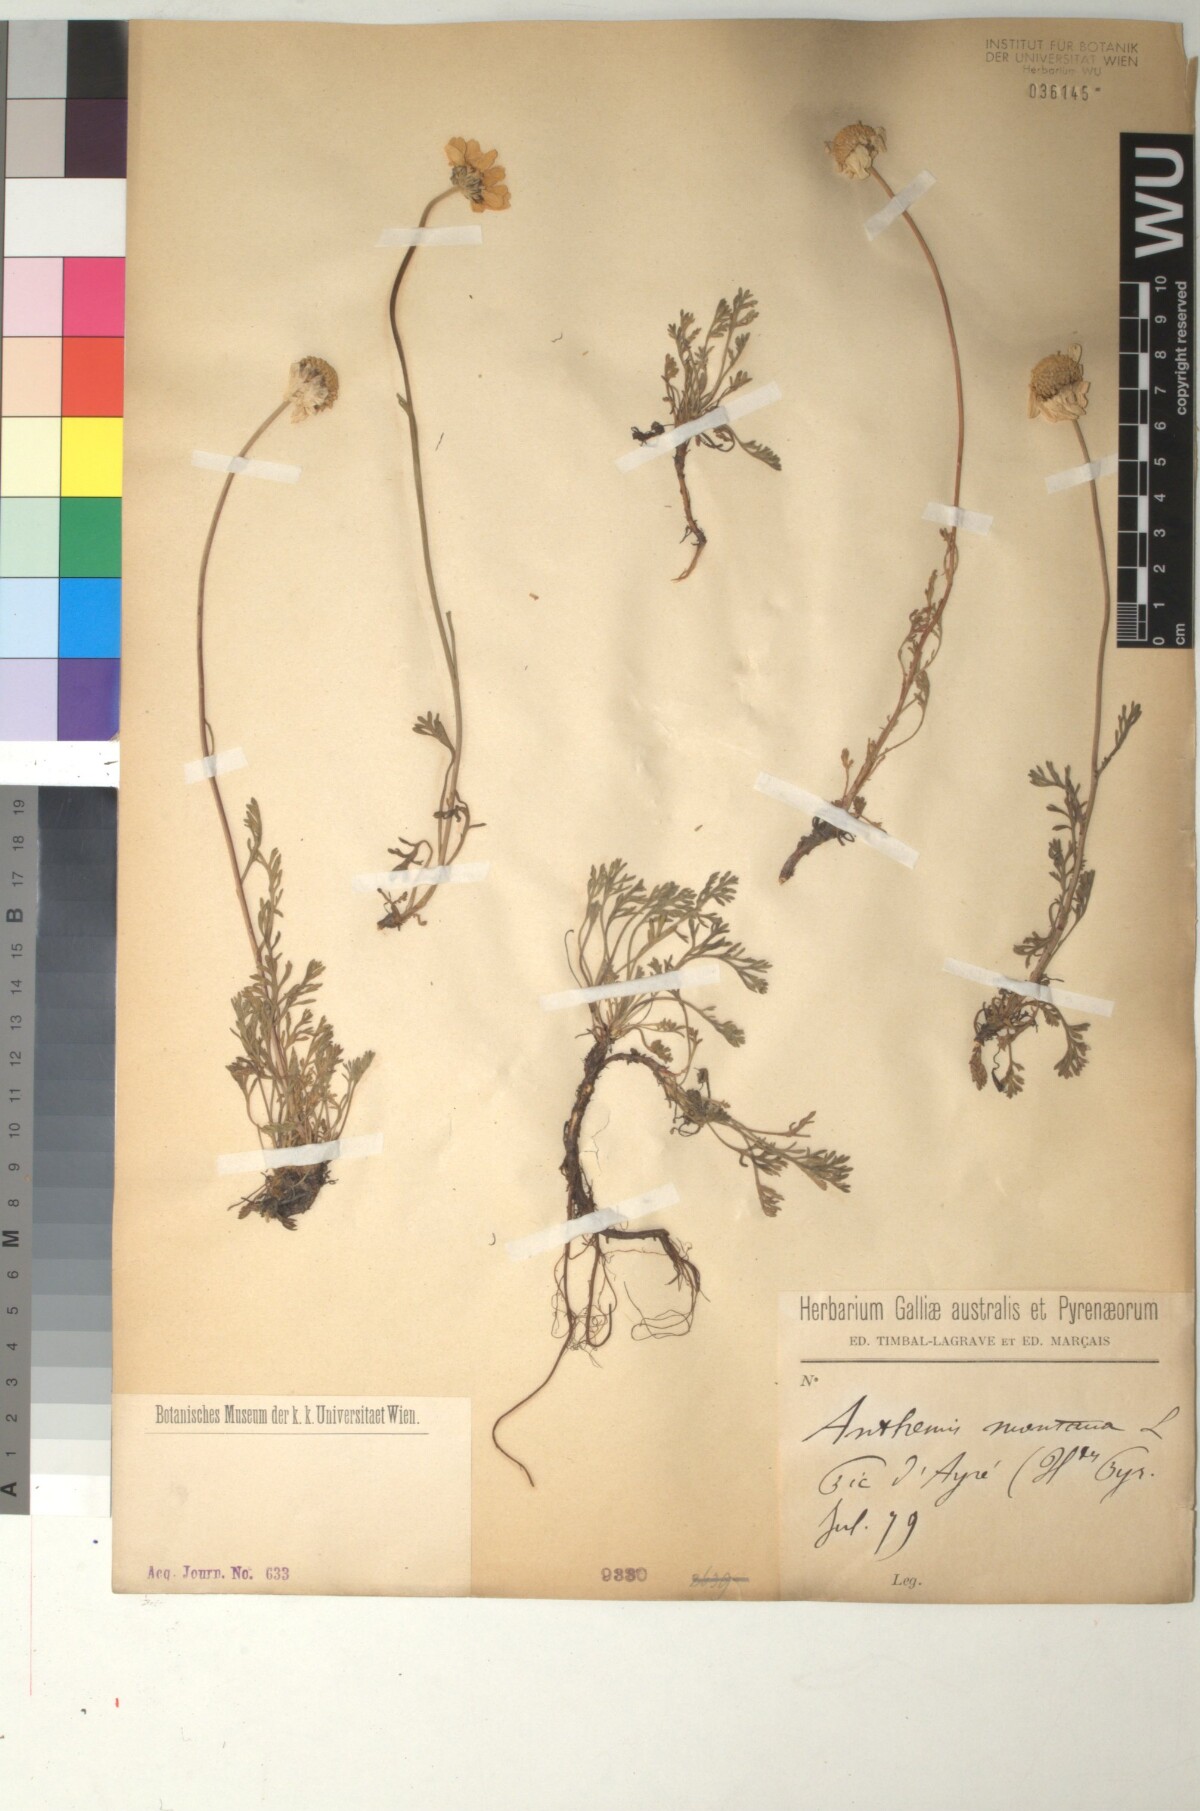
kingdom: Plantae
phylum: Tracheophyta
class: Magnoliopsida
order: Asterales
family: Asteraceae
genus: Anthemis
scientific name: Anthemis cretica
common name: Mountain dog-daisy
